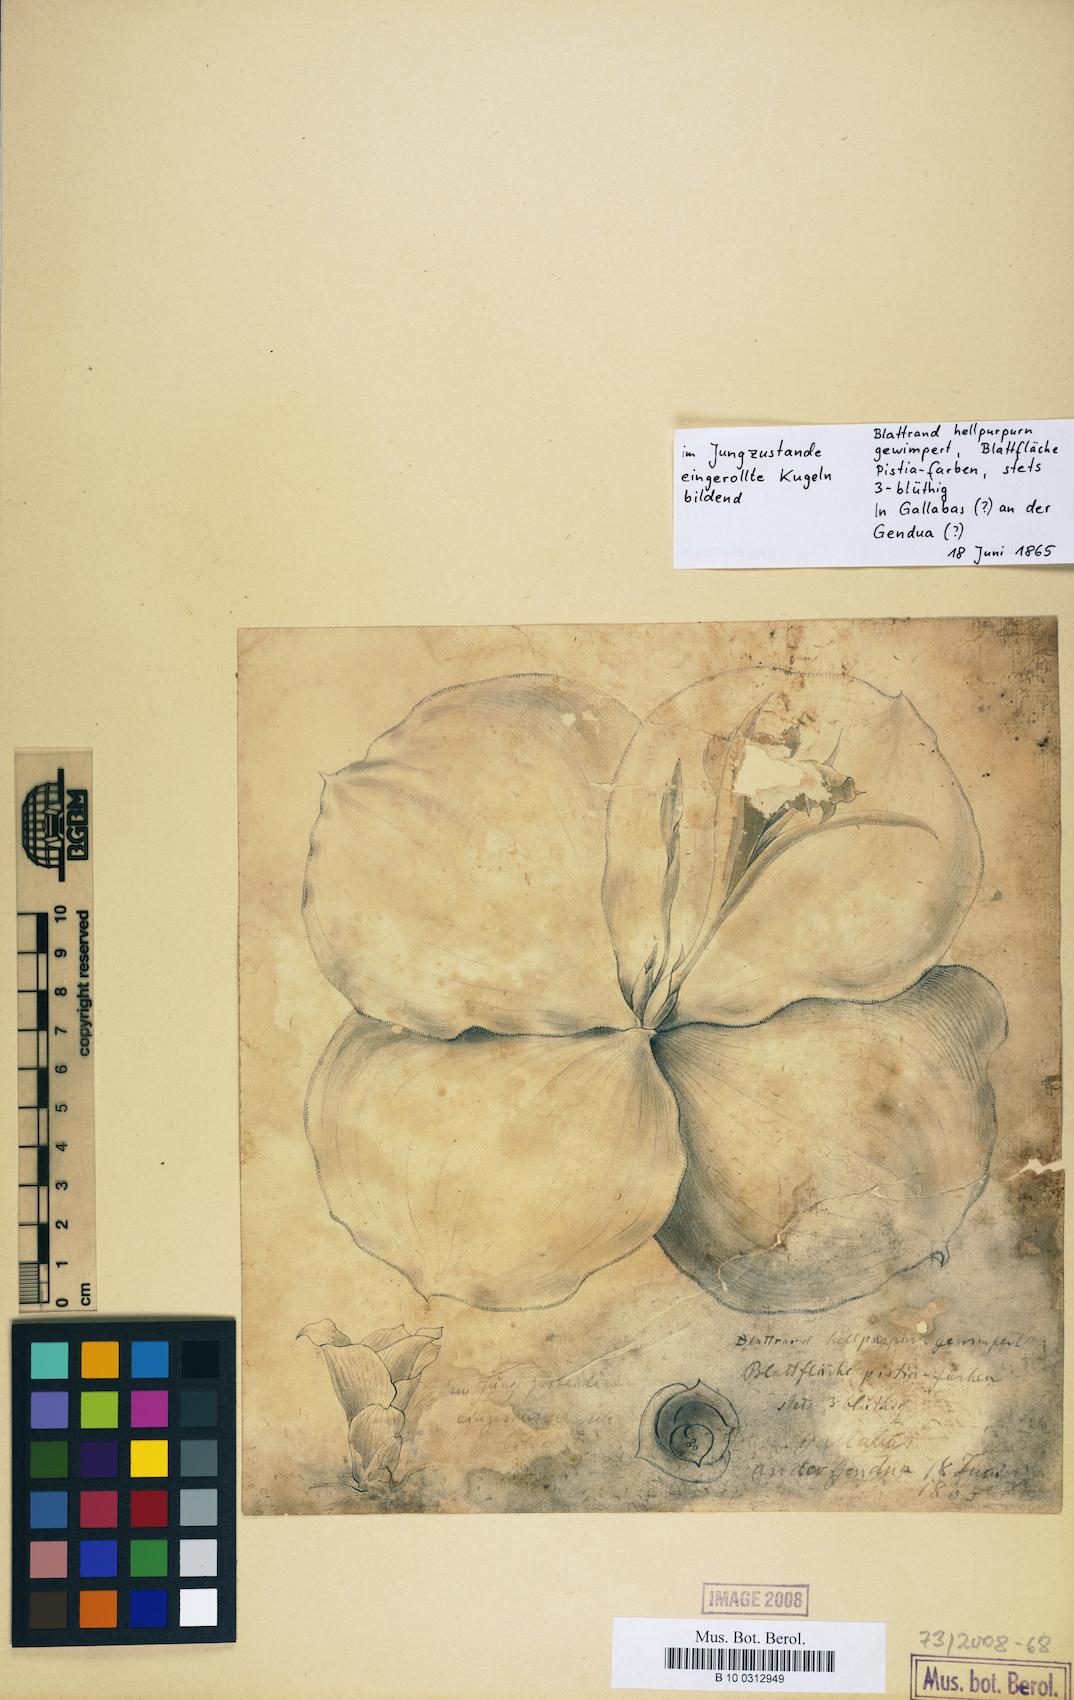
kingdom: Plantae
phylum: Tracheophyta
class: Magnoliopsida
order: Magnoliales
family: Annonaceae
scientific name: Annonaceae
